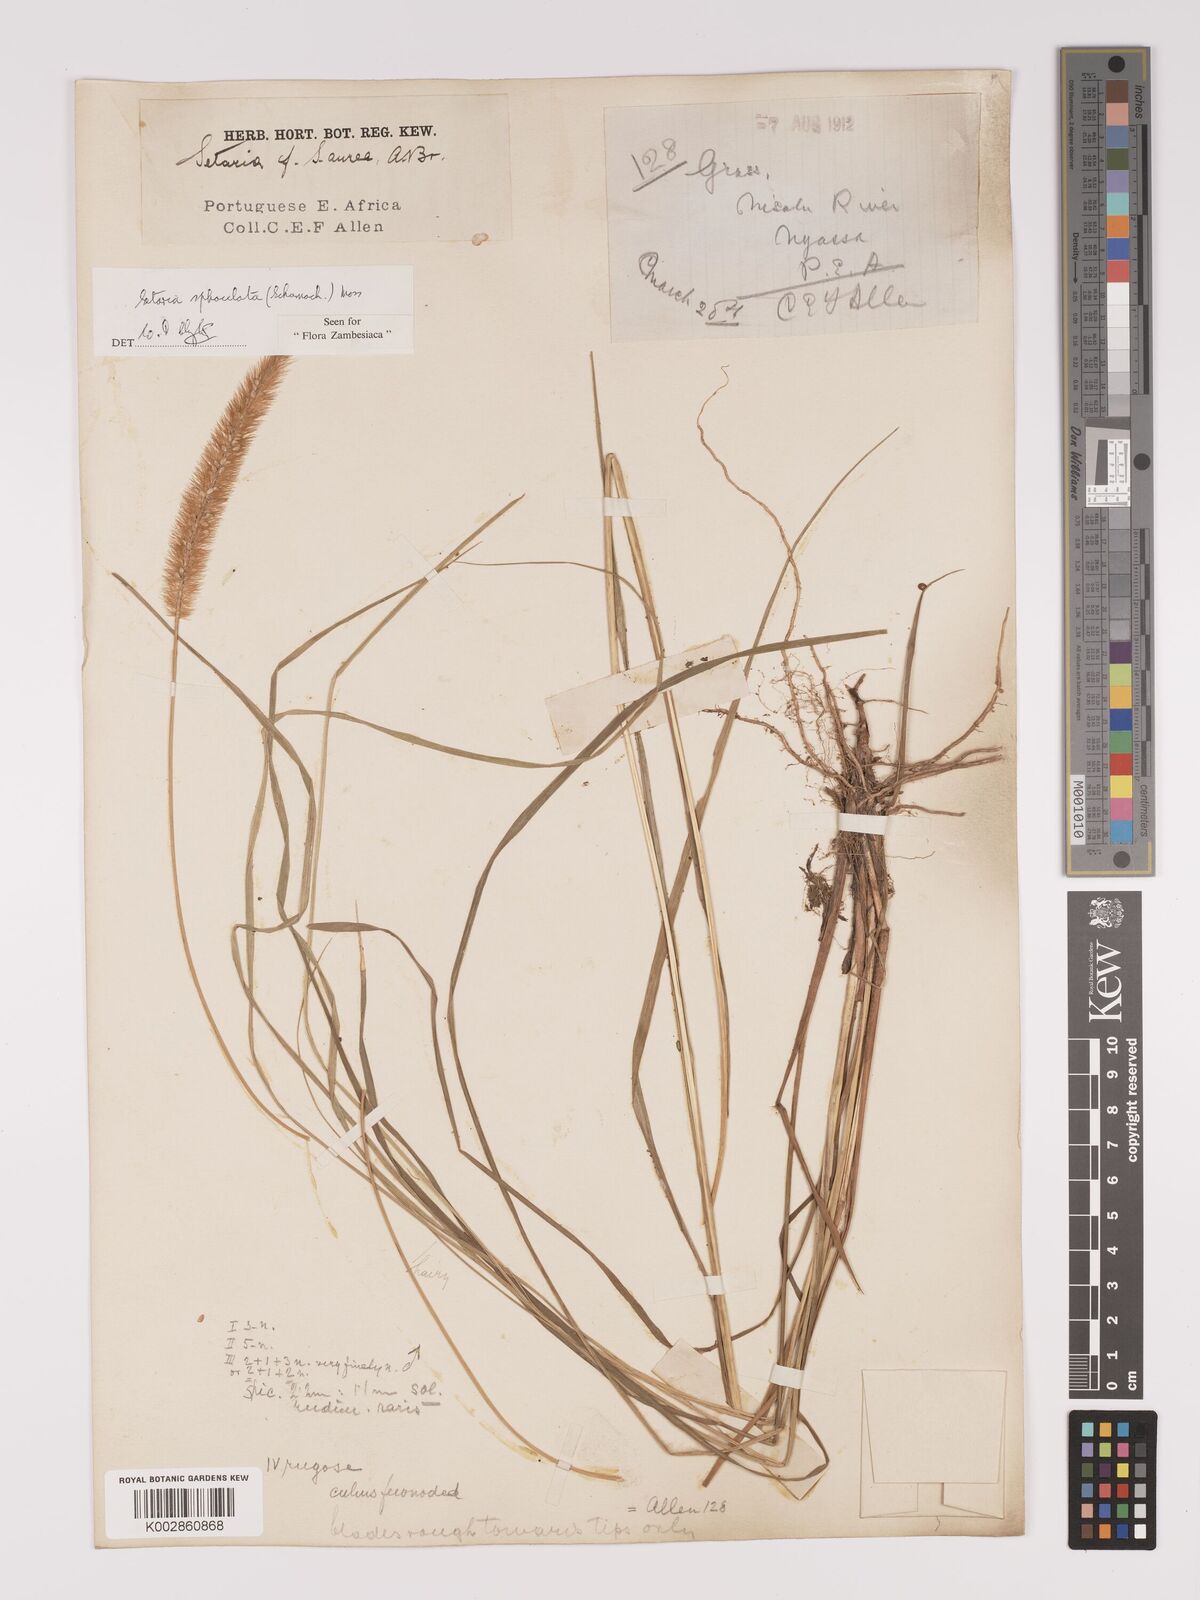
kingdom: Plantae
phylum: Tracheophyta
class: Liliopsida
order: Poales
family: Poaceae
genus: Setaria
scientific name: Setaria sphacelata
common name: African bristlegrass
